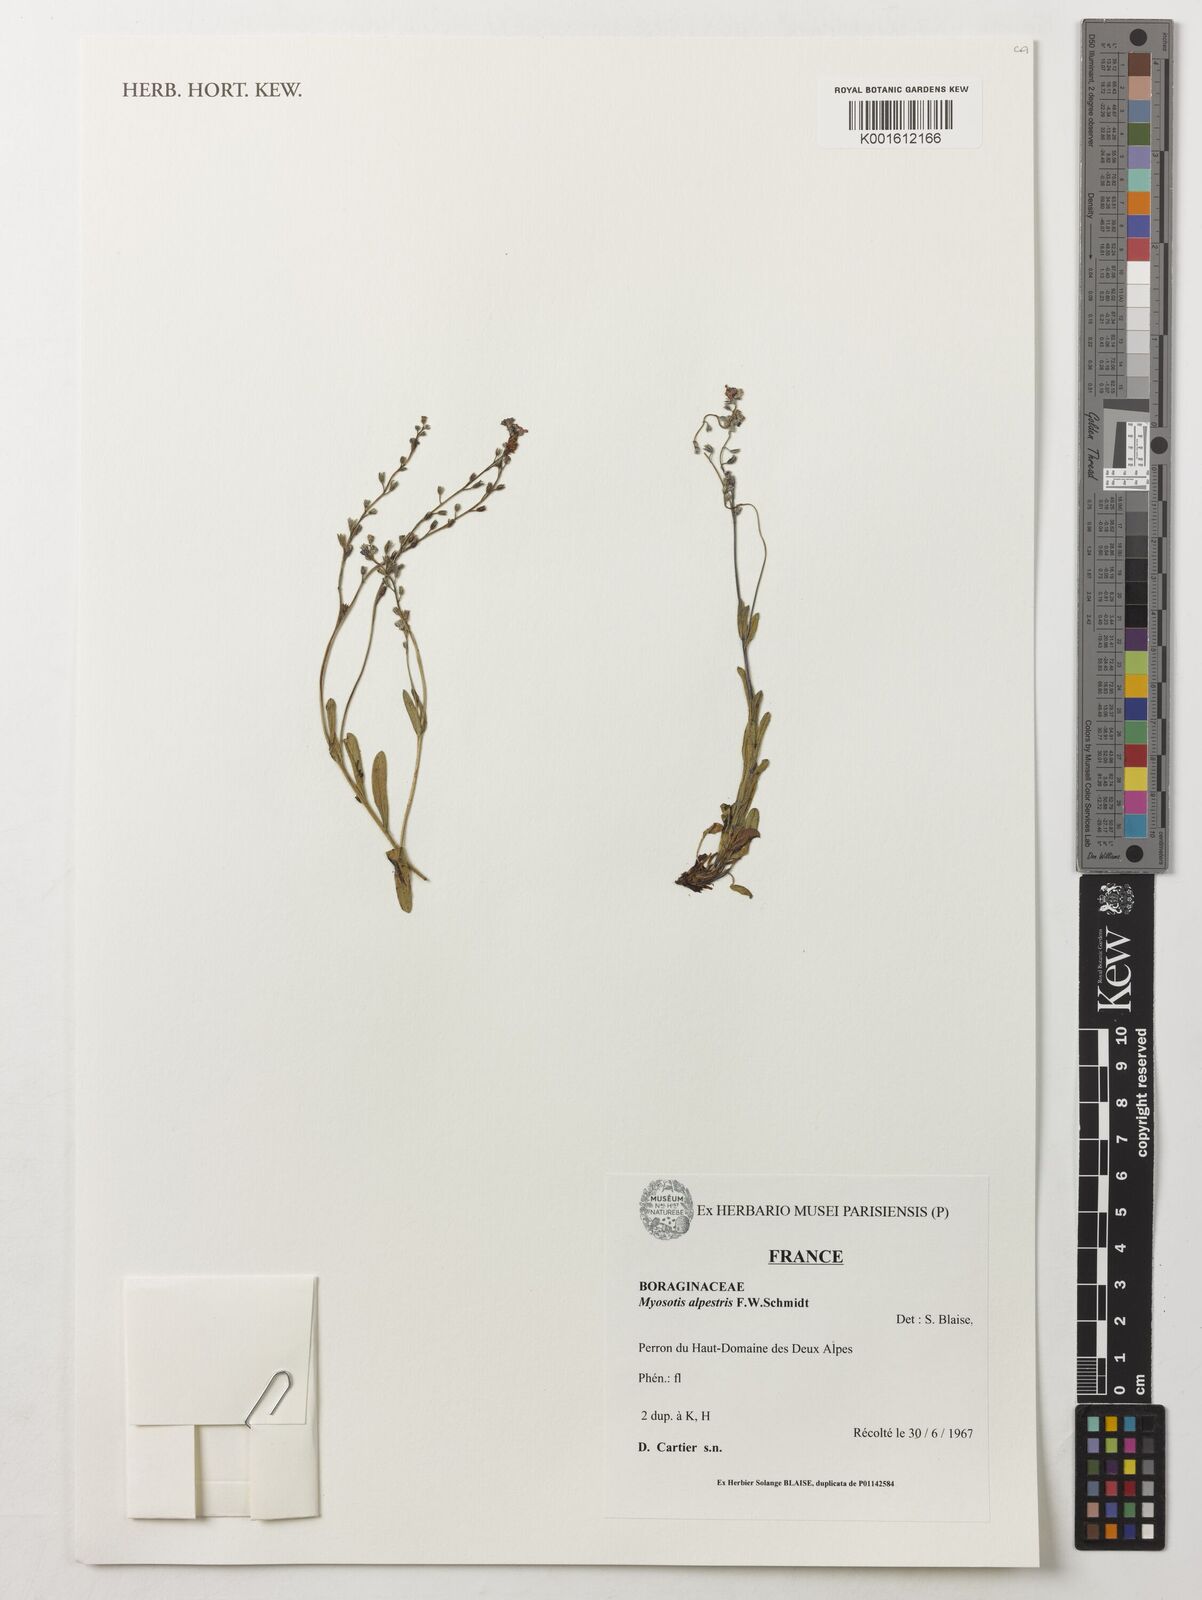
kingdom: Plantae
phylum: Tracheophyta
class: Magnoliopsida
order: Boraginales
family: Boraginaceae
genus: Myosotis
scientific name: Myosotis alpestris
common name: Alpine forget-me-not
